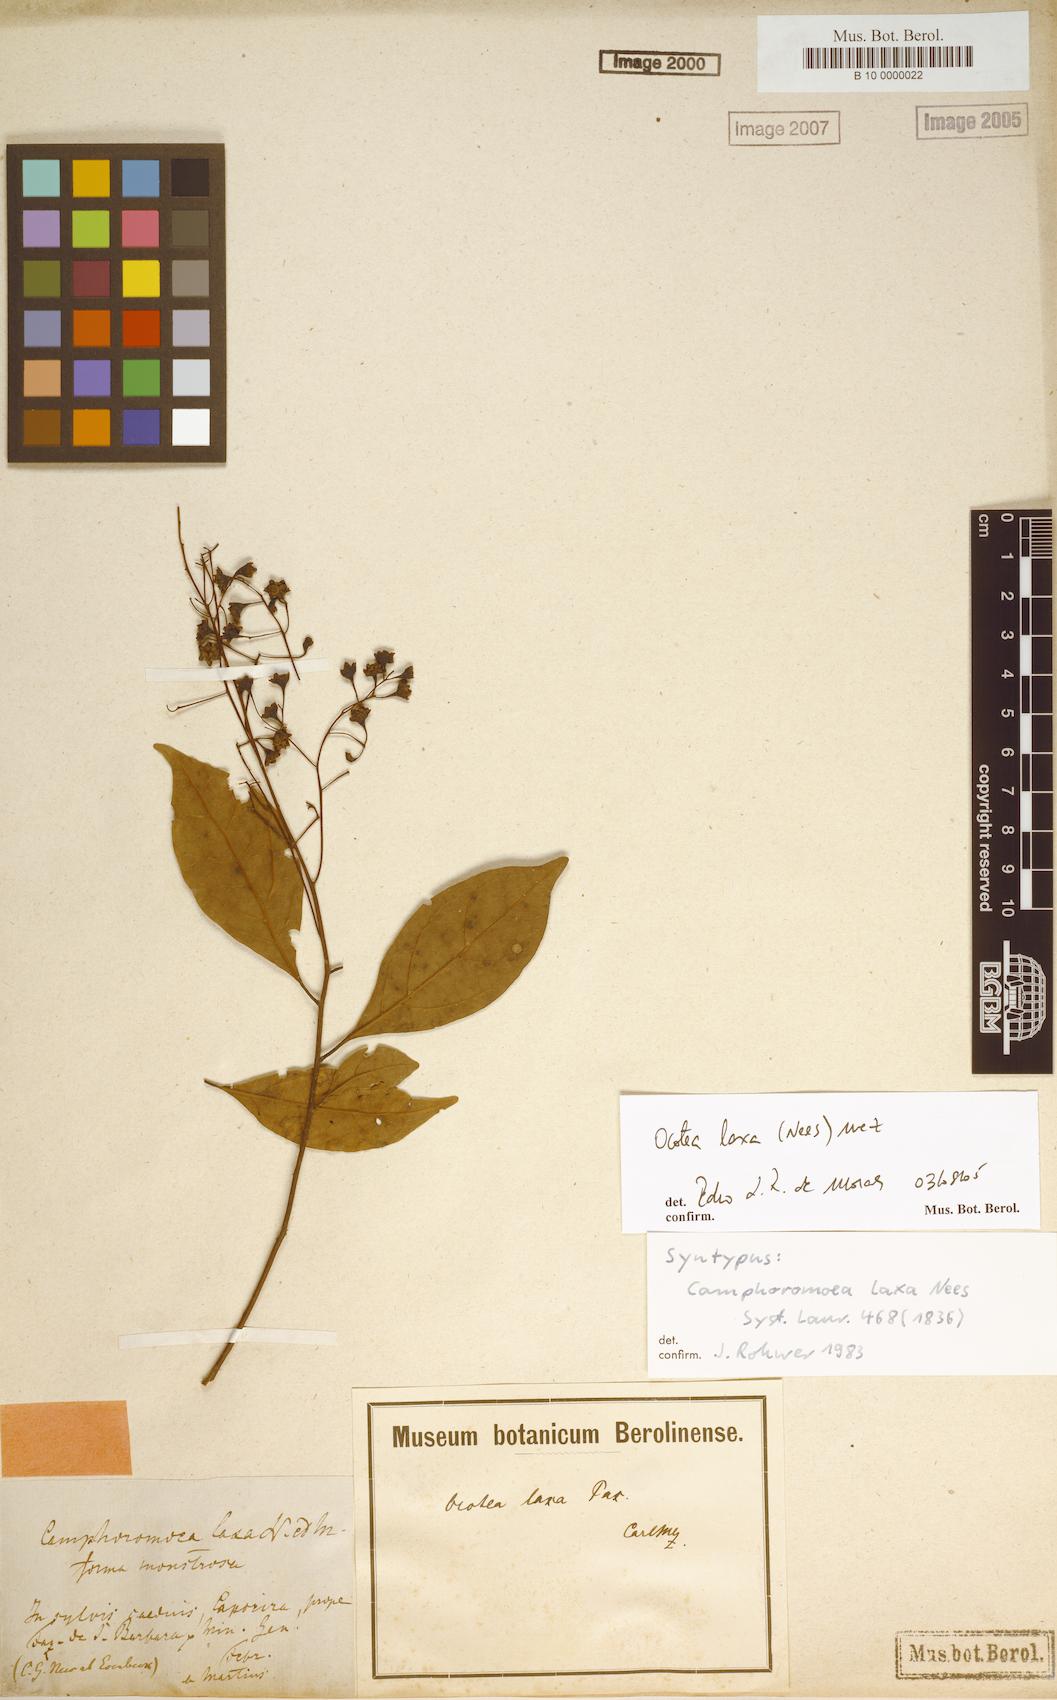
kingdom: Plantae
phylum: Tracheophyta
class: Magnoliopsida
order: Laurales
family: Lauraceae
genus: Ocotea
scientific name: Ocotea laxa
